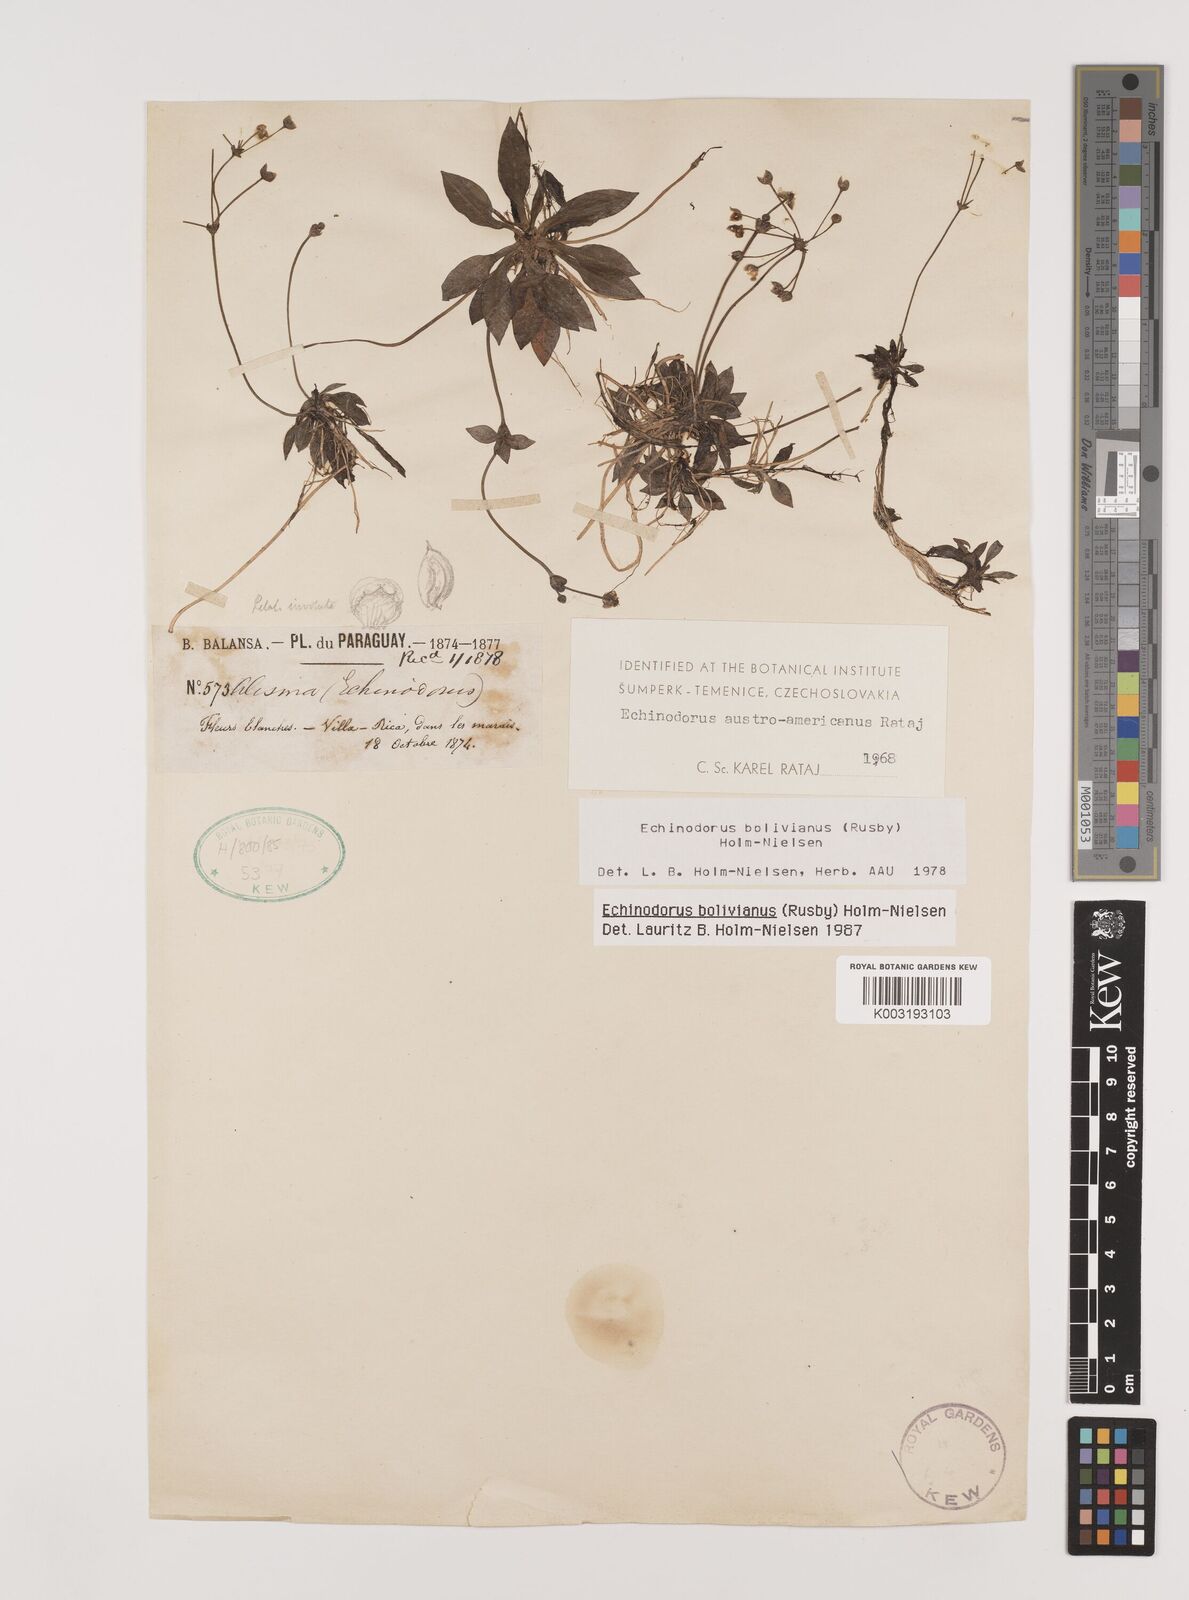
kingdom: Plantae
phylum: Tracheophyta
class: Liliopsida
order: Alismatales
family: Alismataceae
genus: Helanthium
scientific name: Helanthium bolivianum
